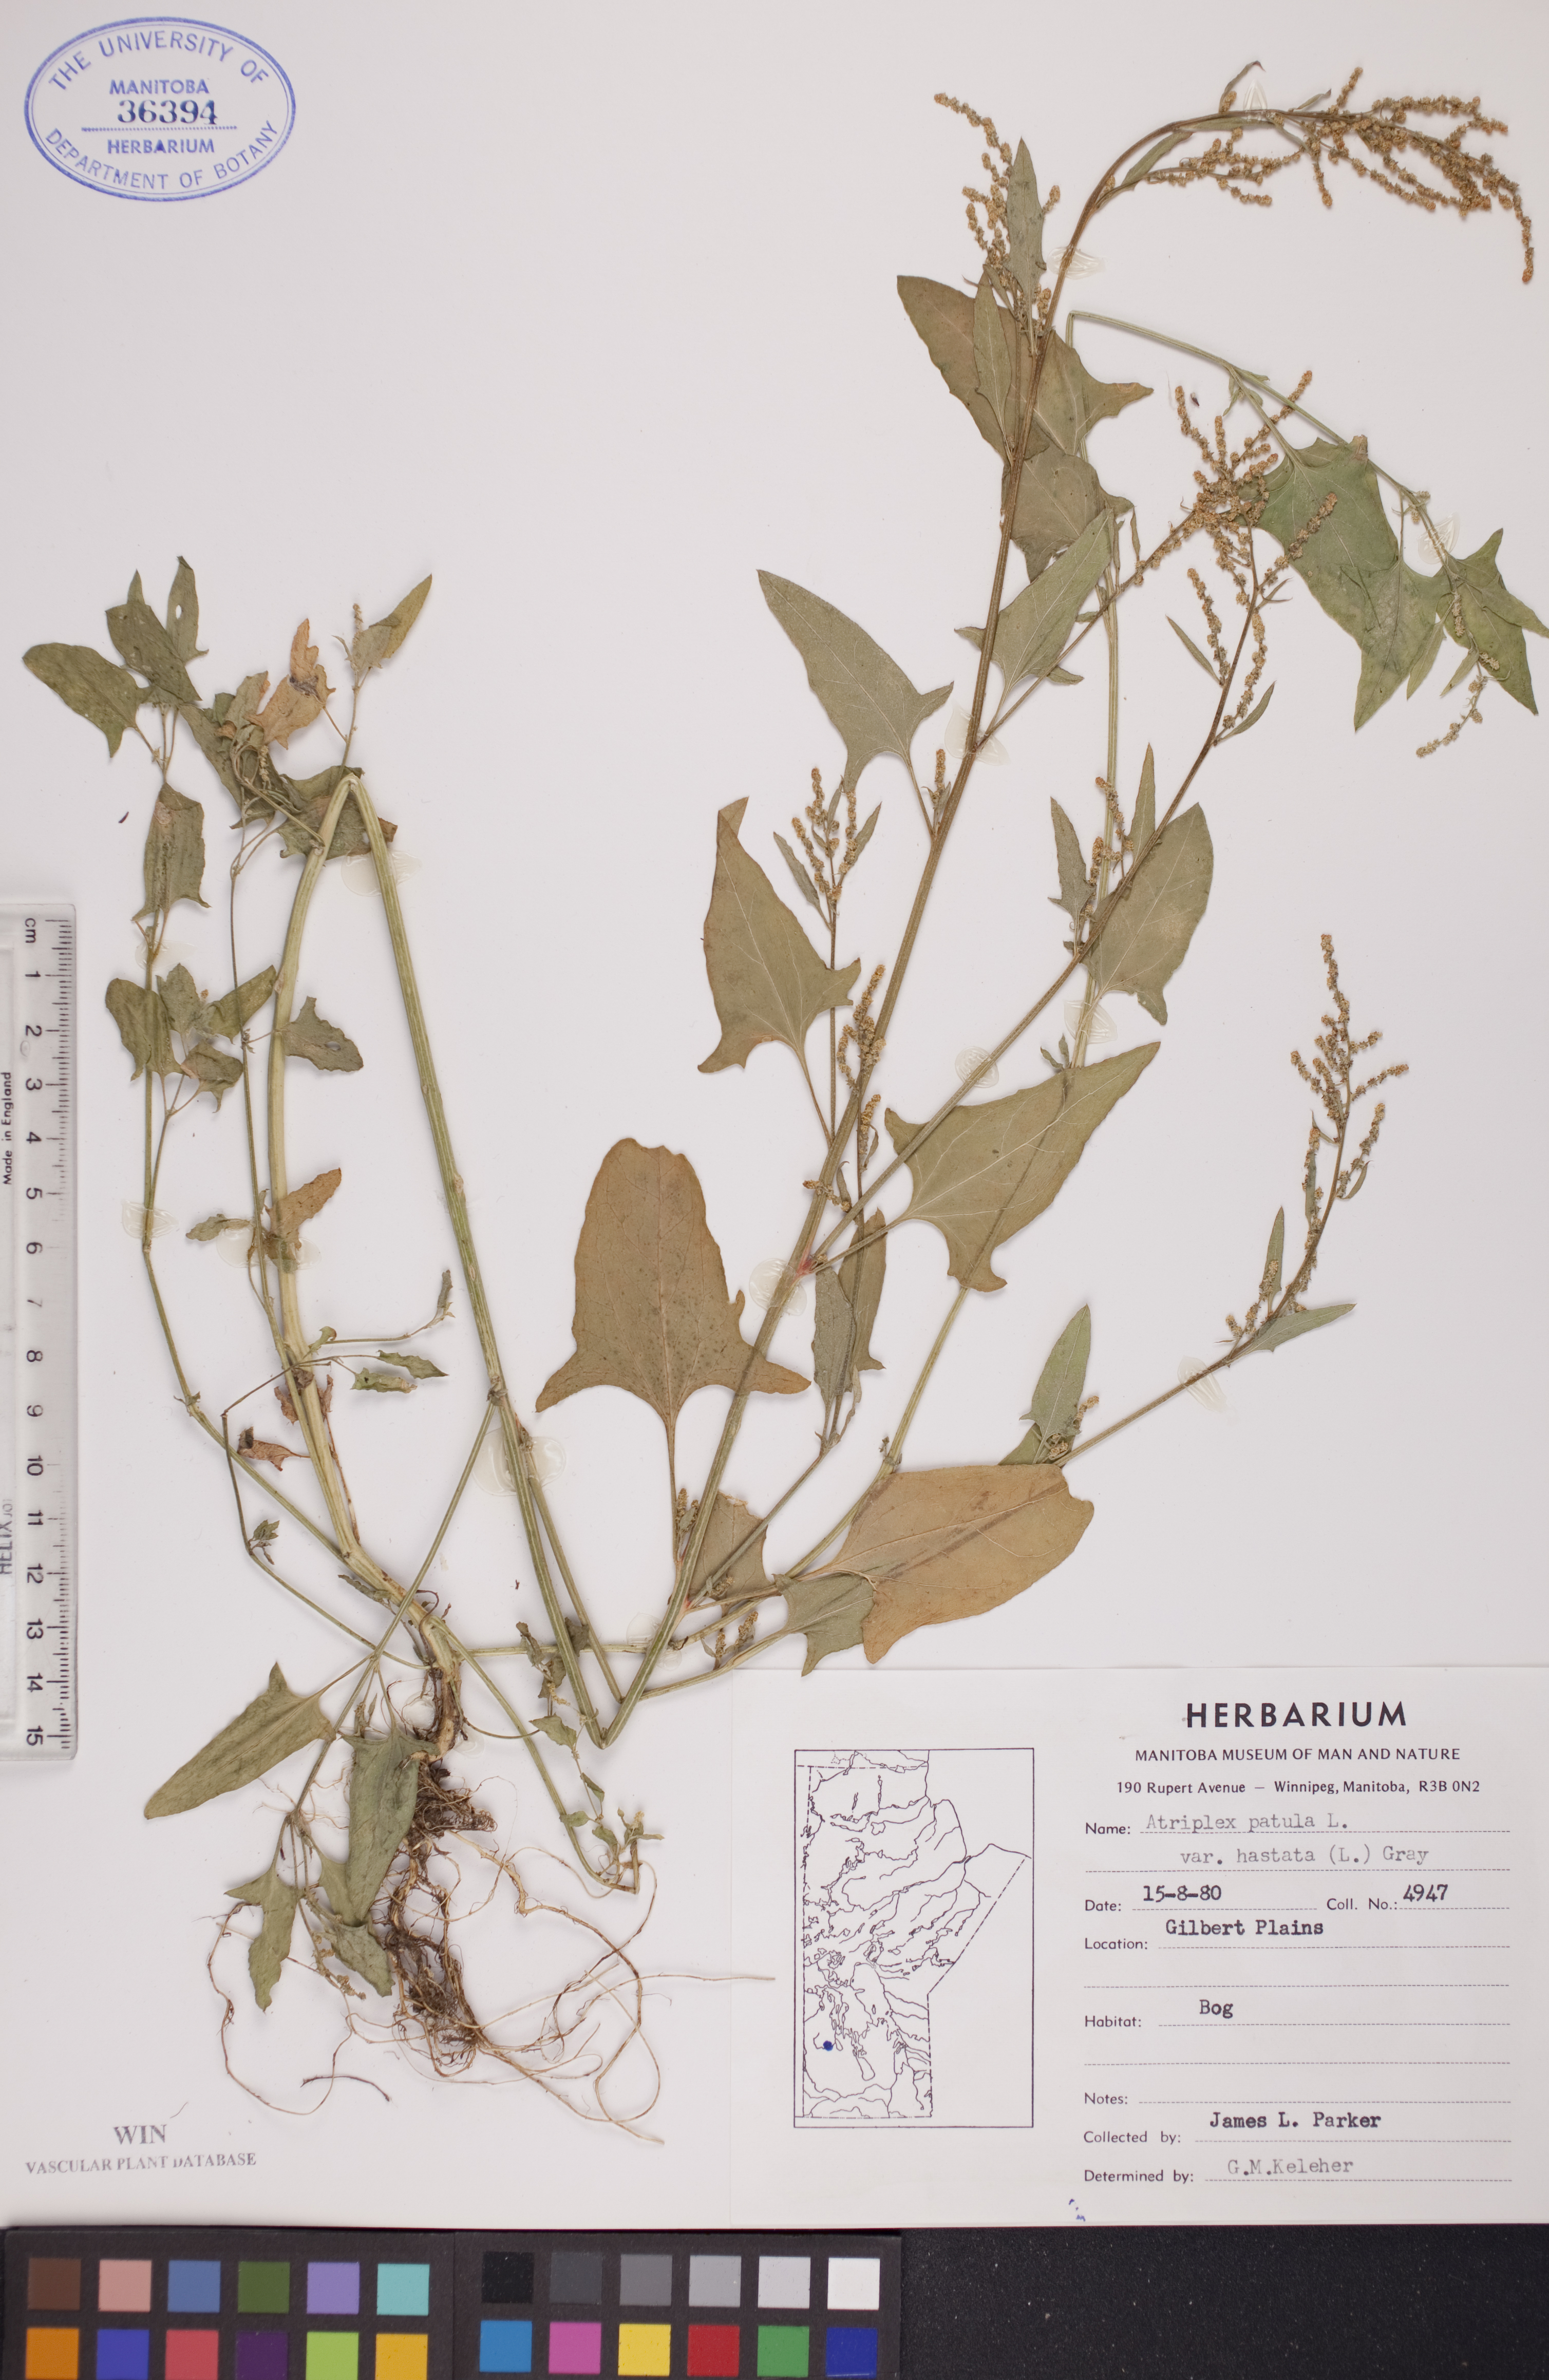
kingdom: Plantae
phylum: Tracheophyta
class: Magnoliopsida
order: Caryophyllales
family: Amaranthaceae
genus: Atriplex
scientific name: Atriplex
